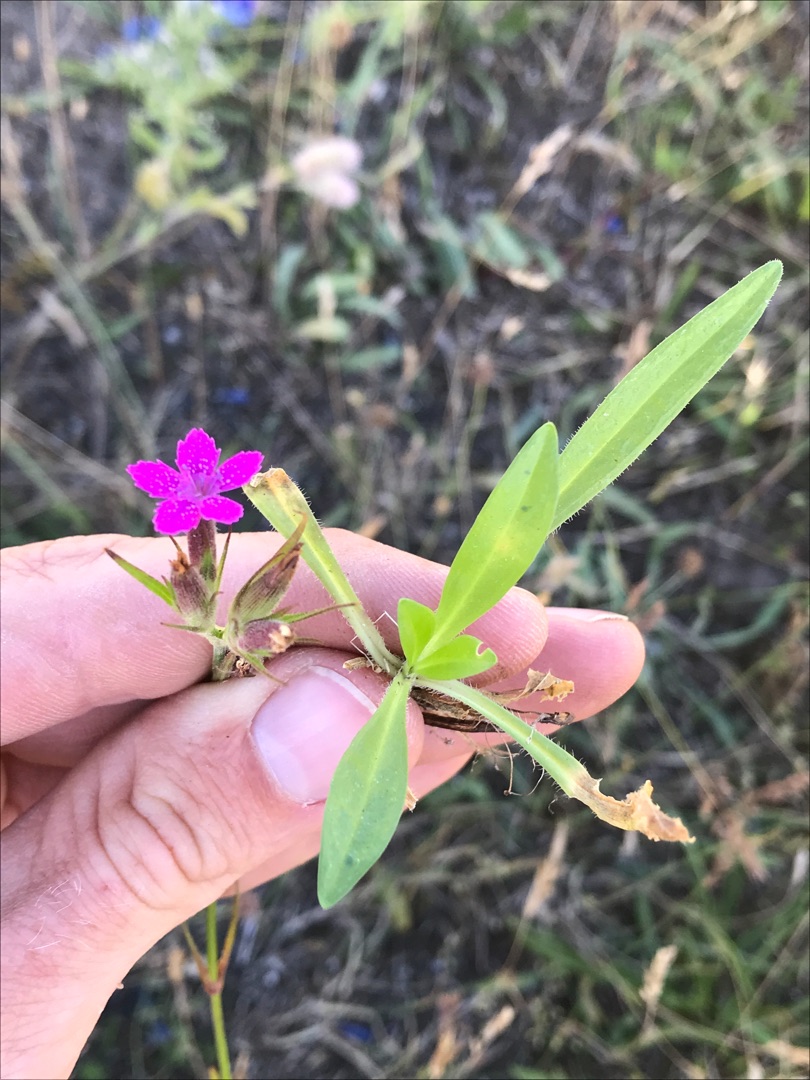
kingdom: Plantae
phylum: Tracheophyta
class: Magnoliopsida
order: Caryophyllales
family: Caryophyllaceae
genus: Dianthus
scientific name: Dianthus armeria
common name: Kost-nellike
